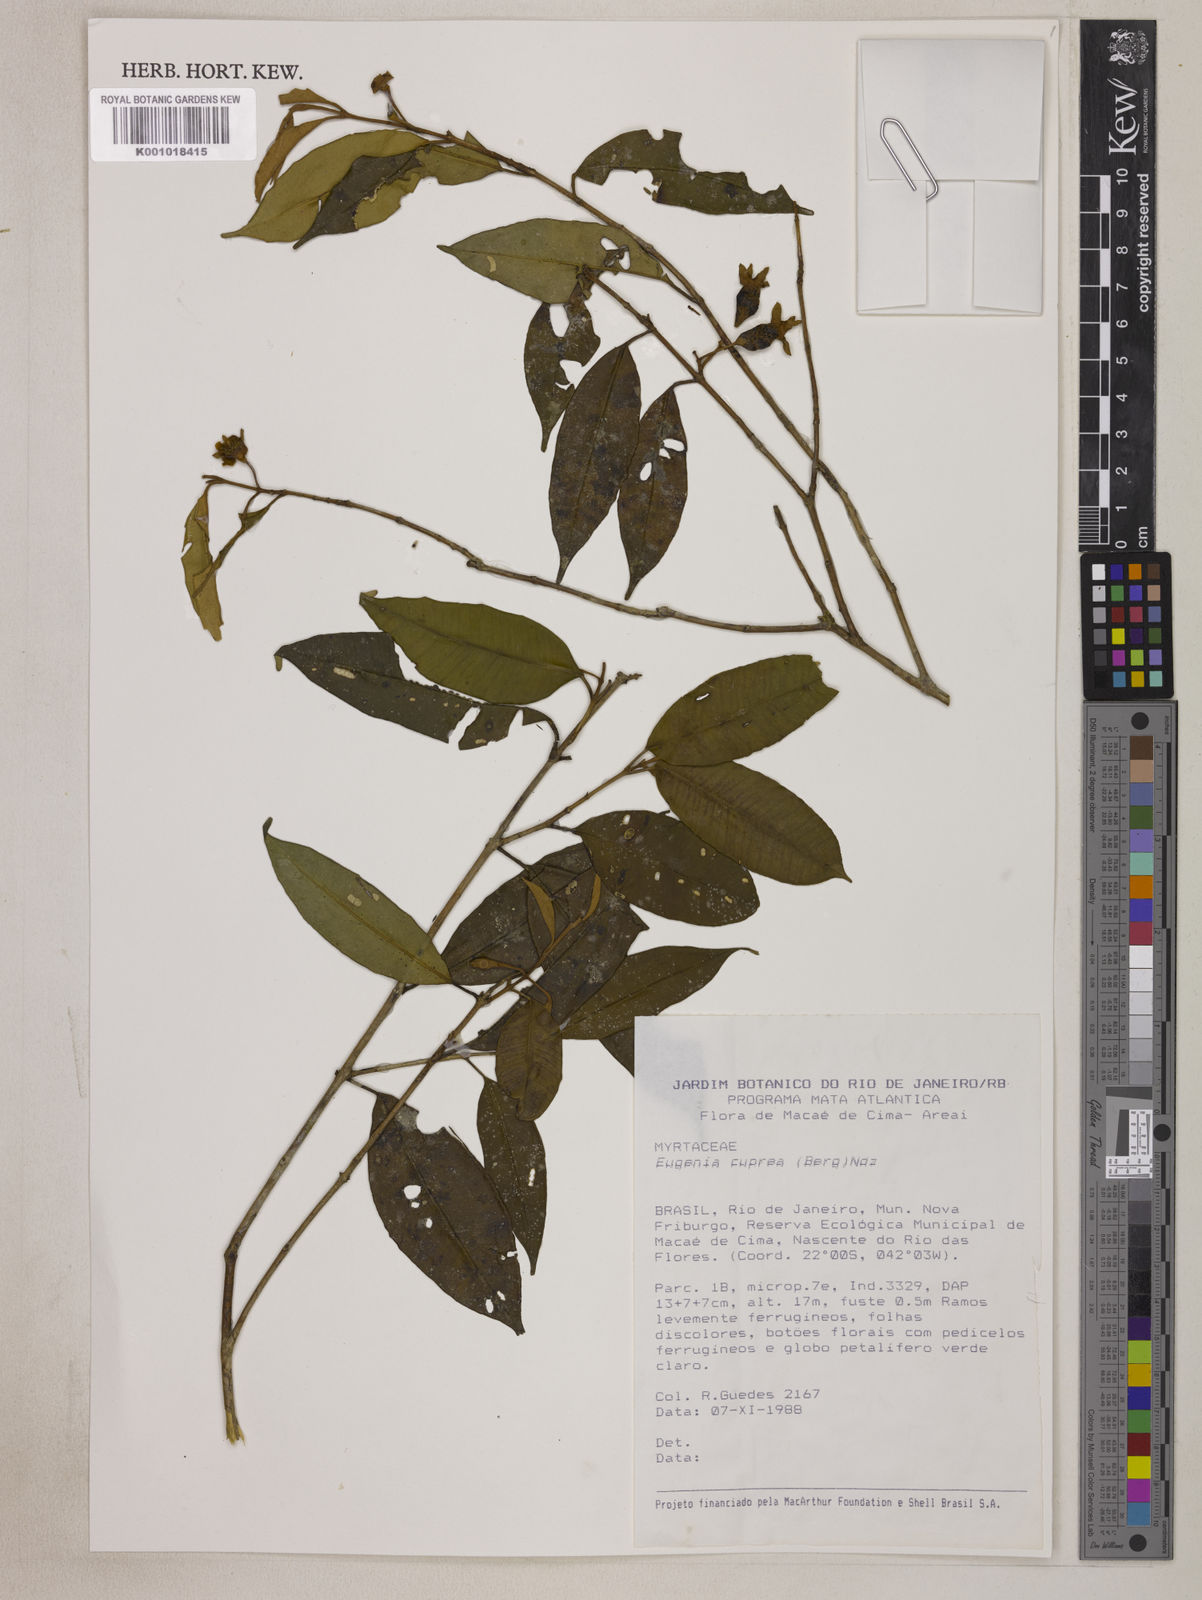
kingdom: Plantae
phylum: Tracheophyta
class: Magnoliopsida
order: Myrtales
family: Myrtaceae
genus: Eugenia
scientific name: Eugenia cuprea
